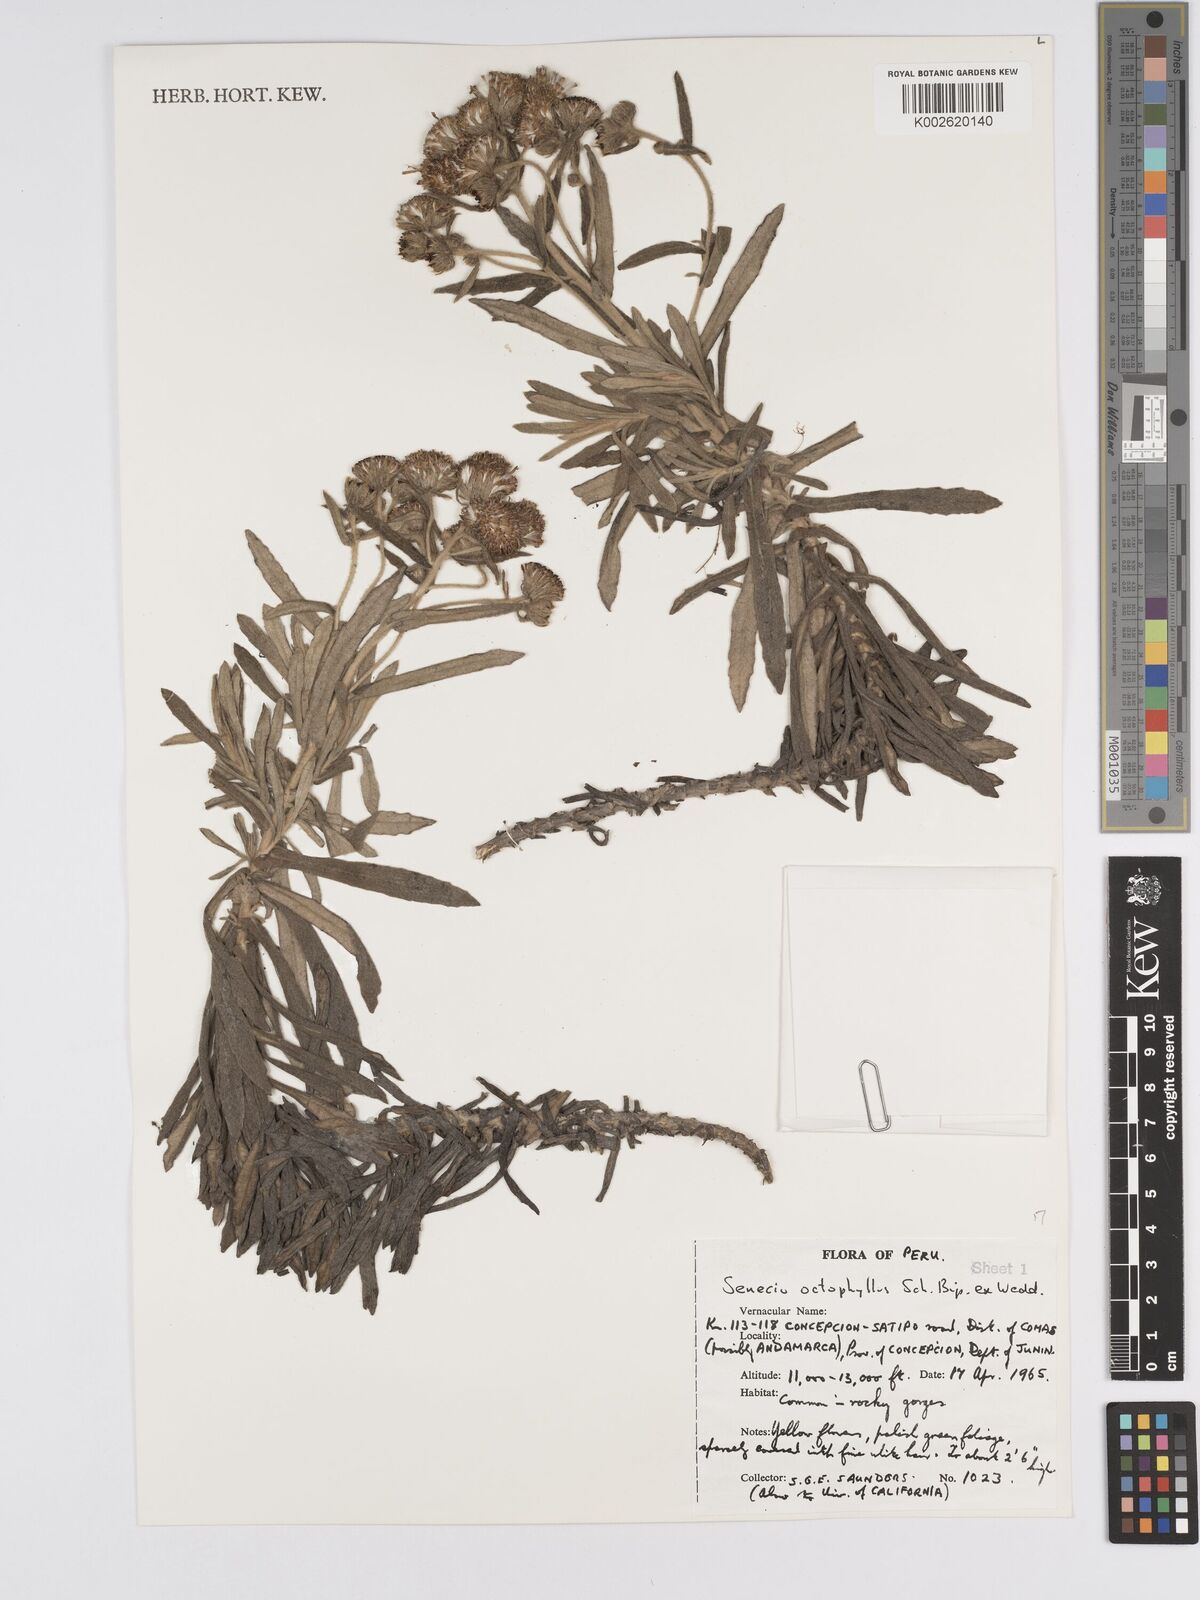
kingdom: Plantae
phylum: Tracheophyta
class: Magnoliopsida
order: Asterales
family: Asteraceae
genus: Senecio
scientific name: Senecio octophyllus
